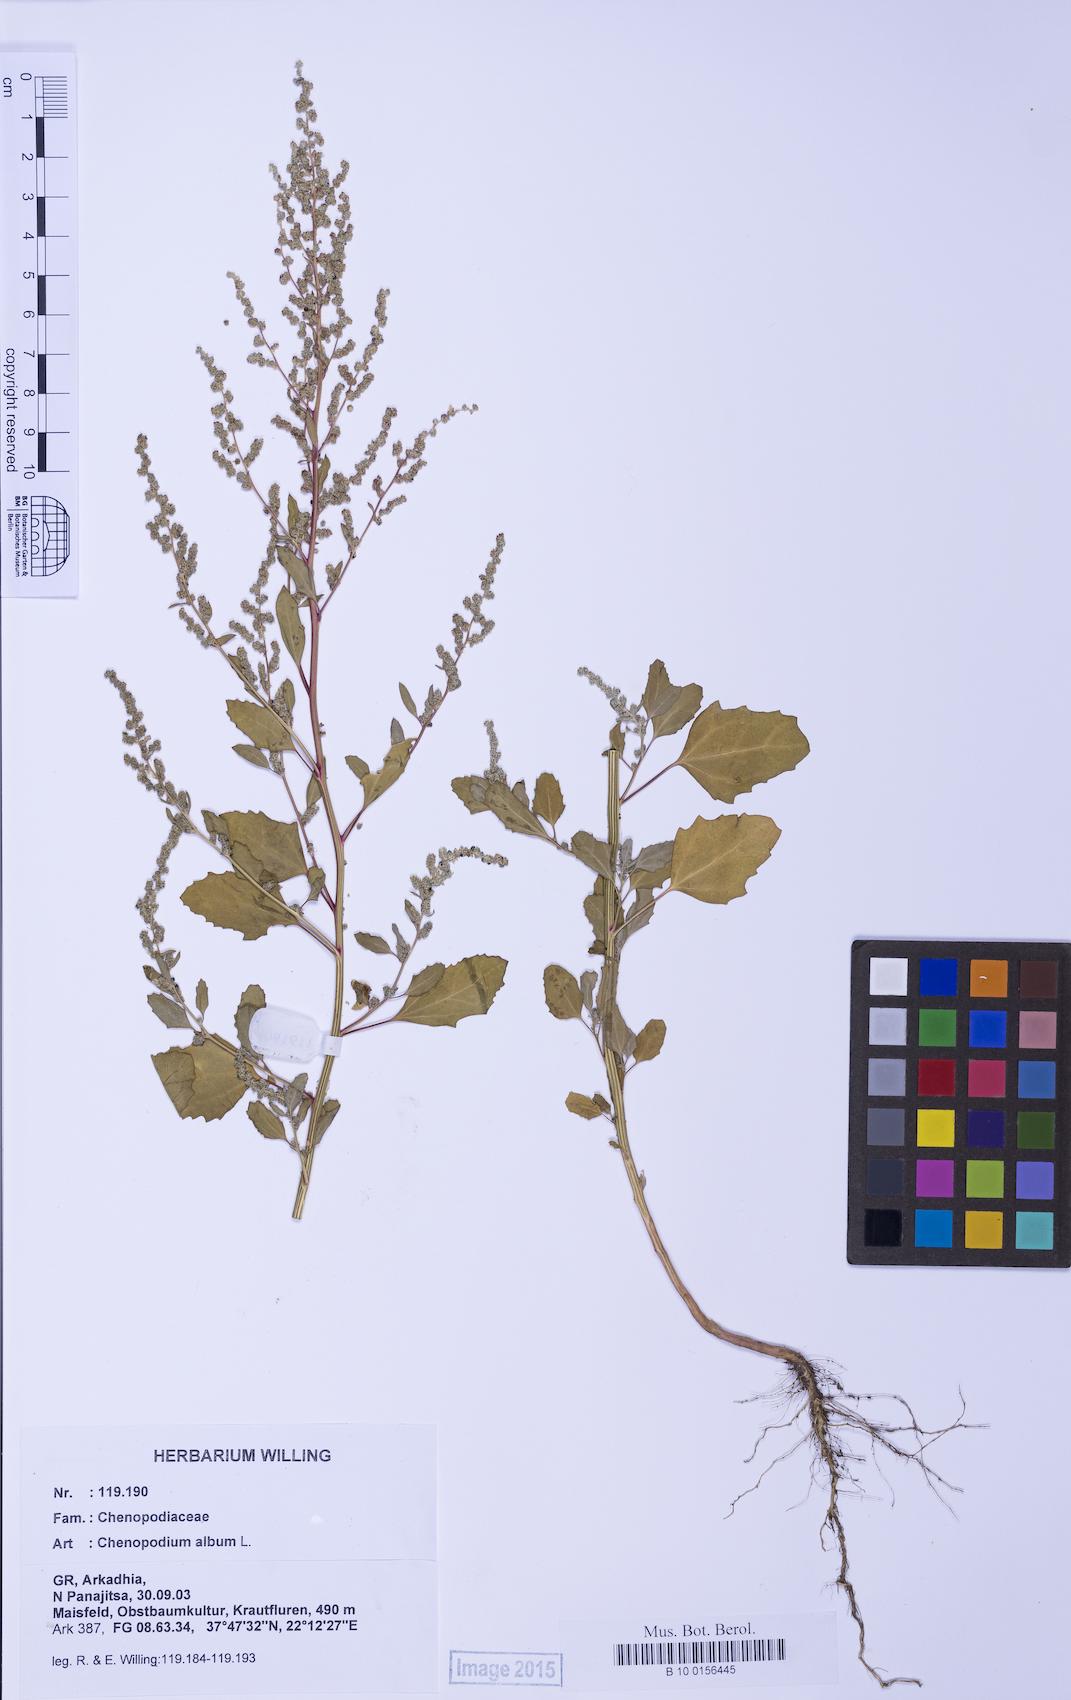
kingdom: Plantae
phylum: Tracheophyta
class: Magnoliopsida
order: Caryophyllales
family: Amaranthaceae
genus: Chenopodium
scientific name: Chenopodium album
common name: Fat-hen
